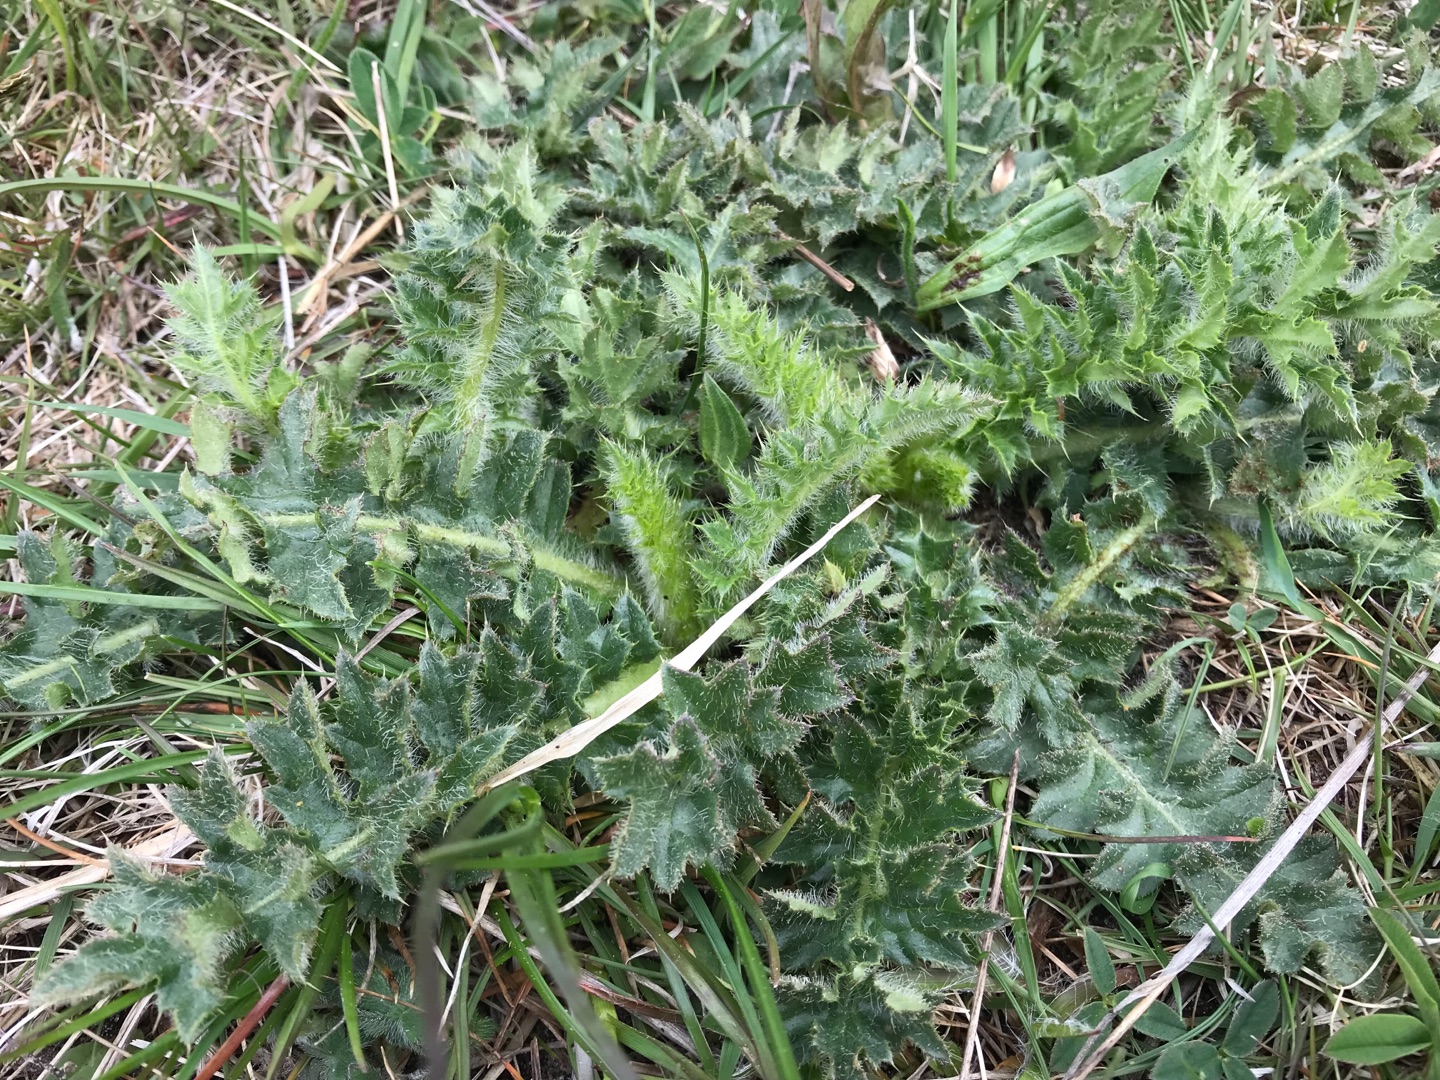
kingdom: Plantae
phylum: Tracheophyta
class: Magnoliopsida
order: Asterales
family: Asteraceae
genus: Cirsium
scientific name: Cirsium acaule
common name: Lav tidsel
